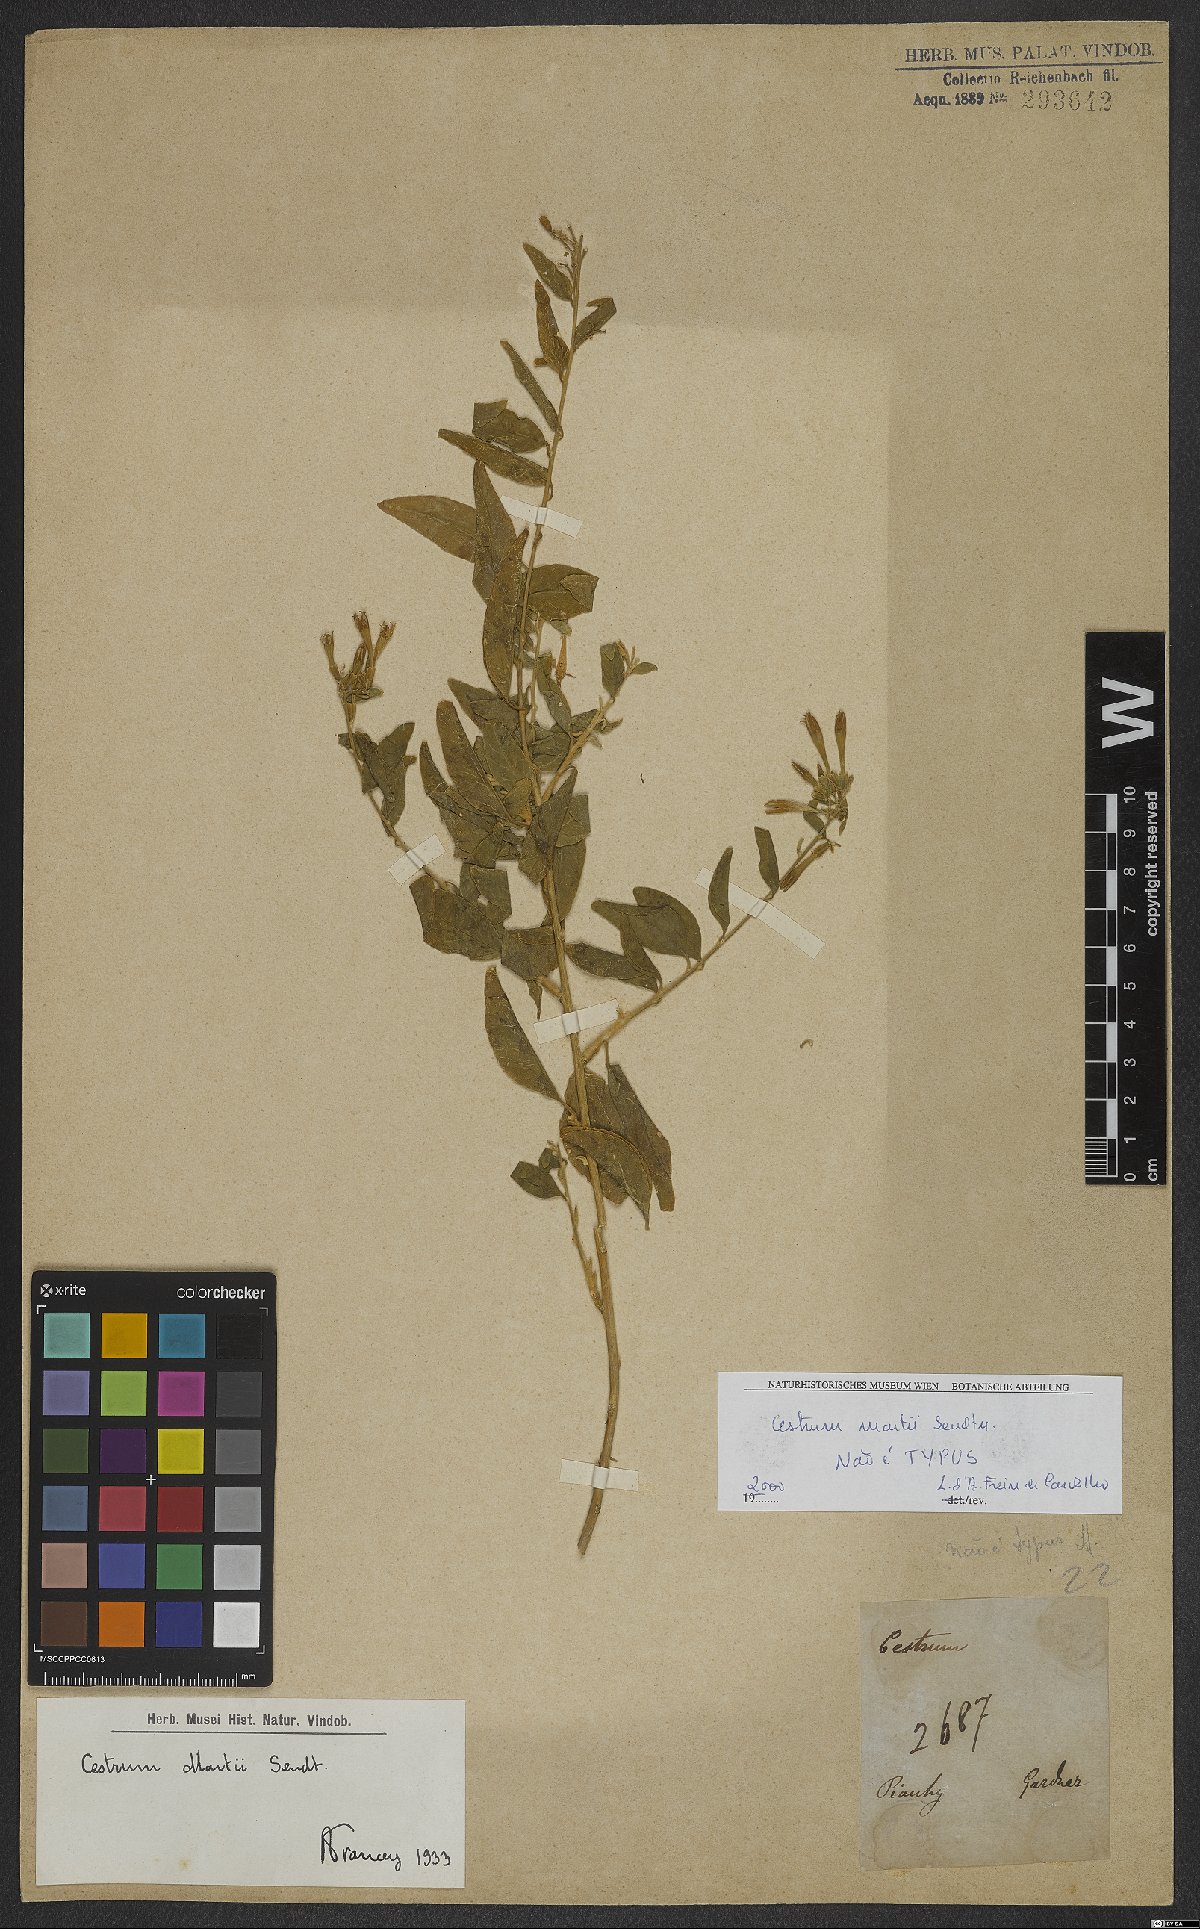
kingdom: Plantae
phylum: Tracheophyta
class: Magnoliopsida
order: Solanales
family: Solanaceae
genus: Cestrum
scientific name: Cestrum martii
